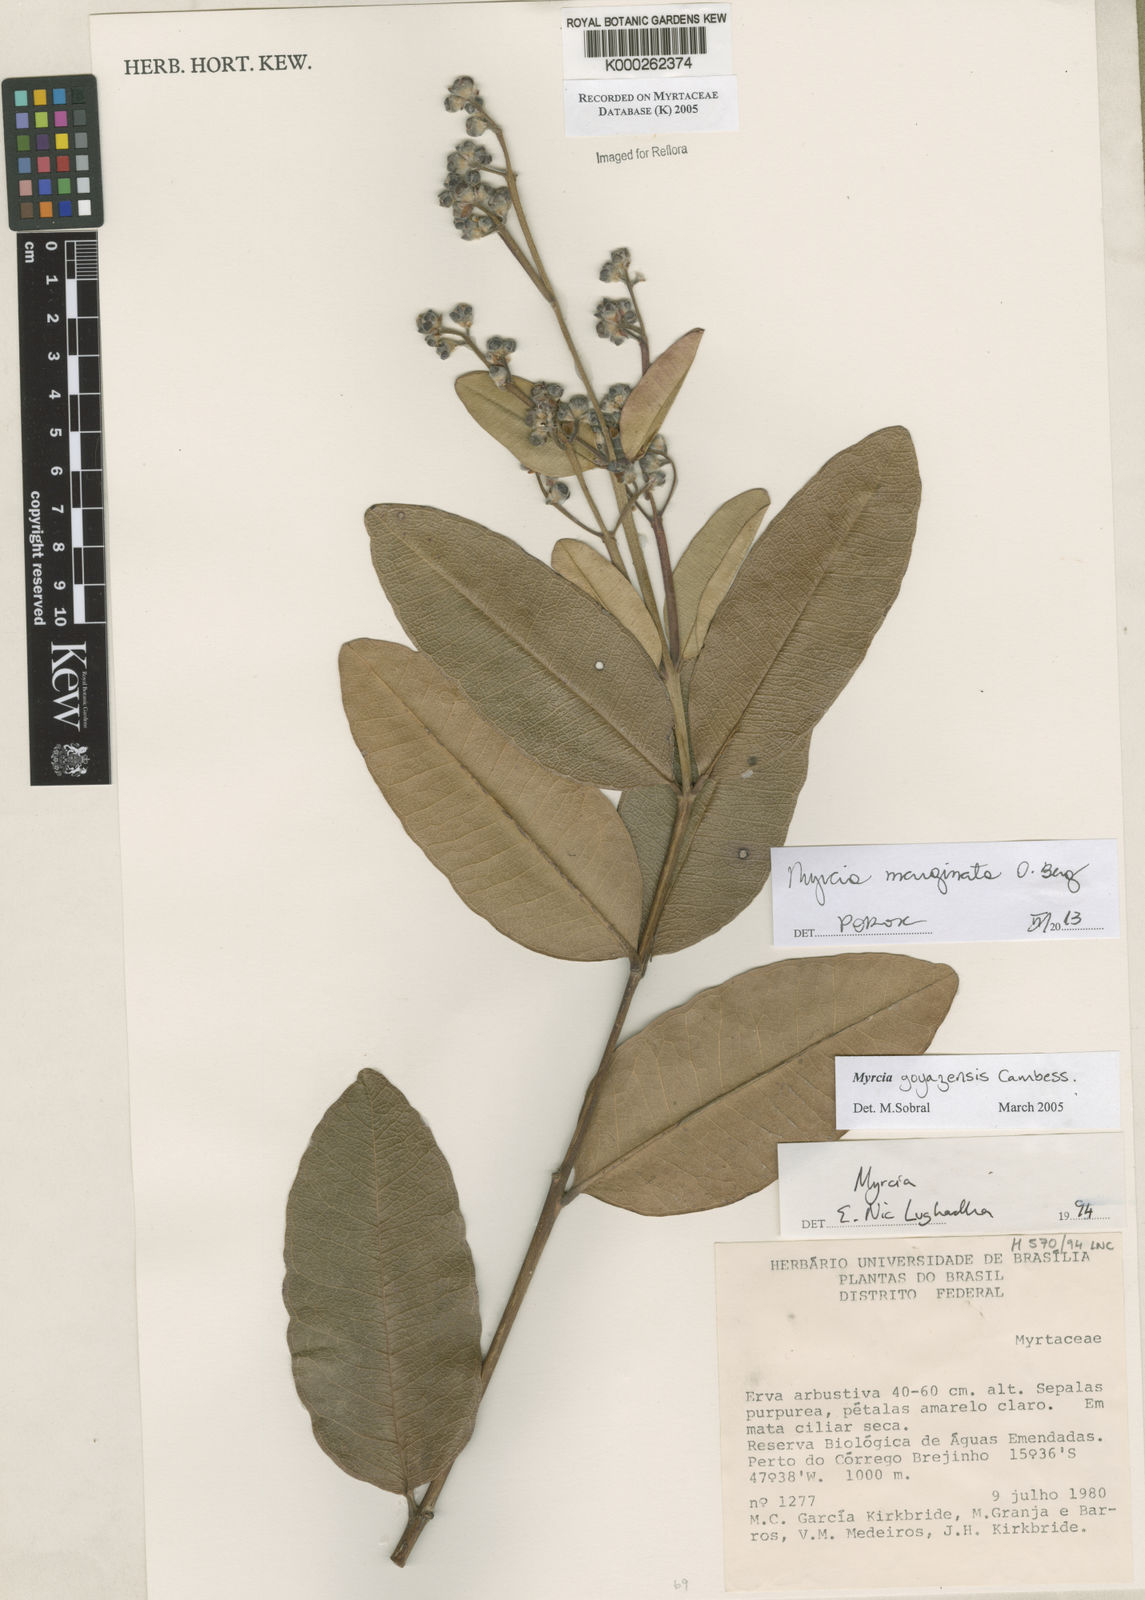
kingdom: Plantae
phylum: Tracheophyta
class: Magnoliopsida
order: Myrtales
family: Myrtaceae
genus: Myrcia
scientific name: Myrcia goyazensis
